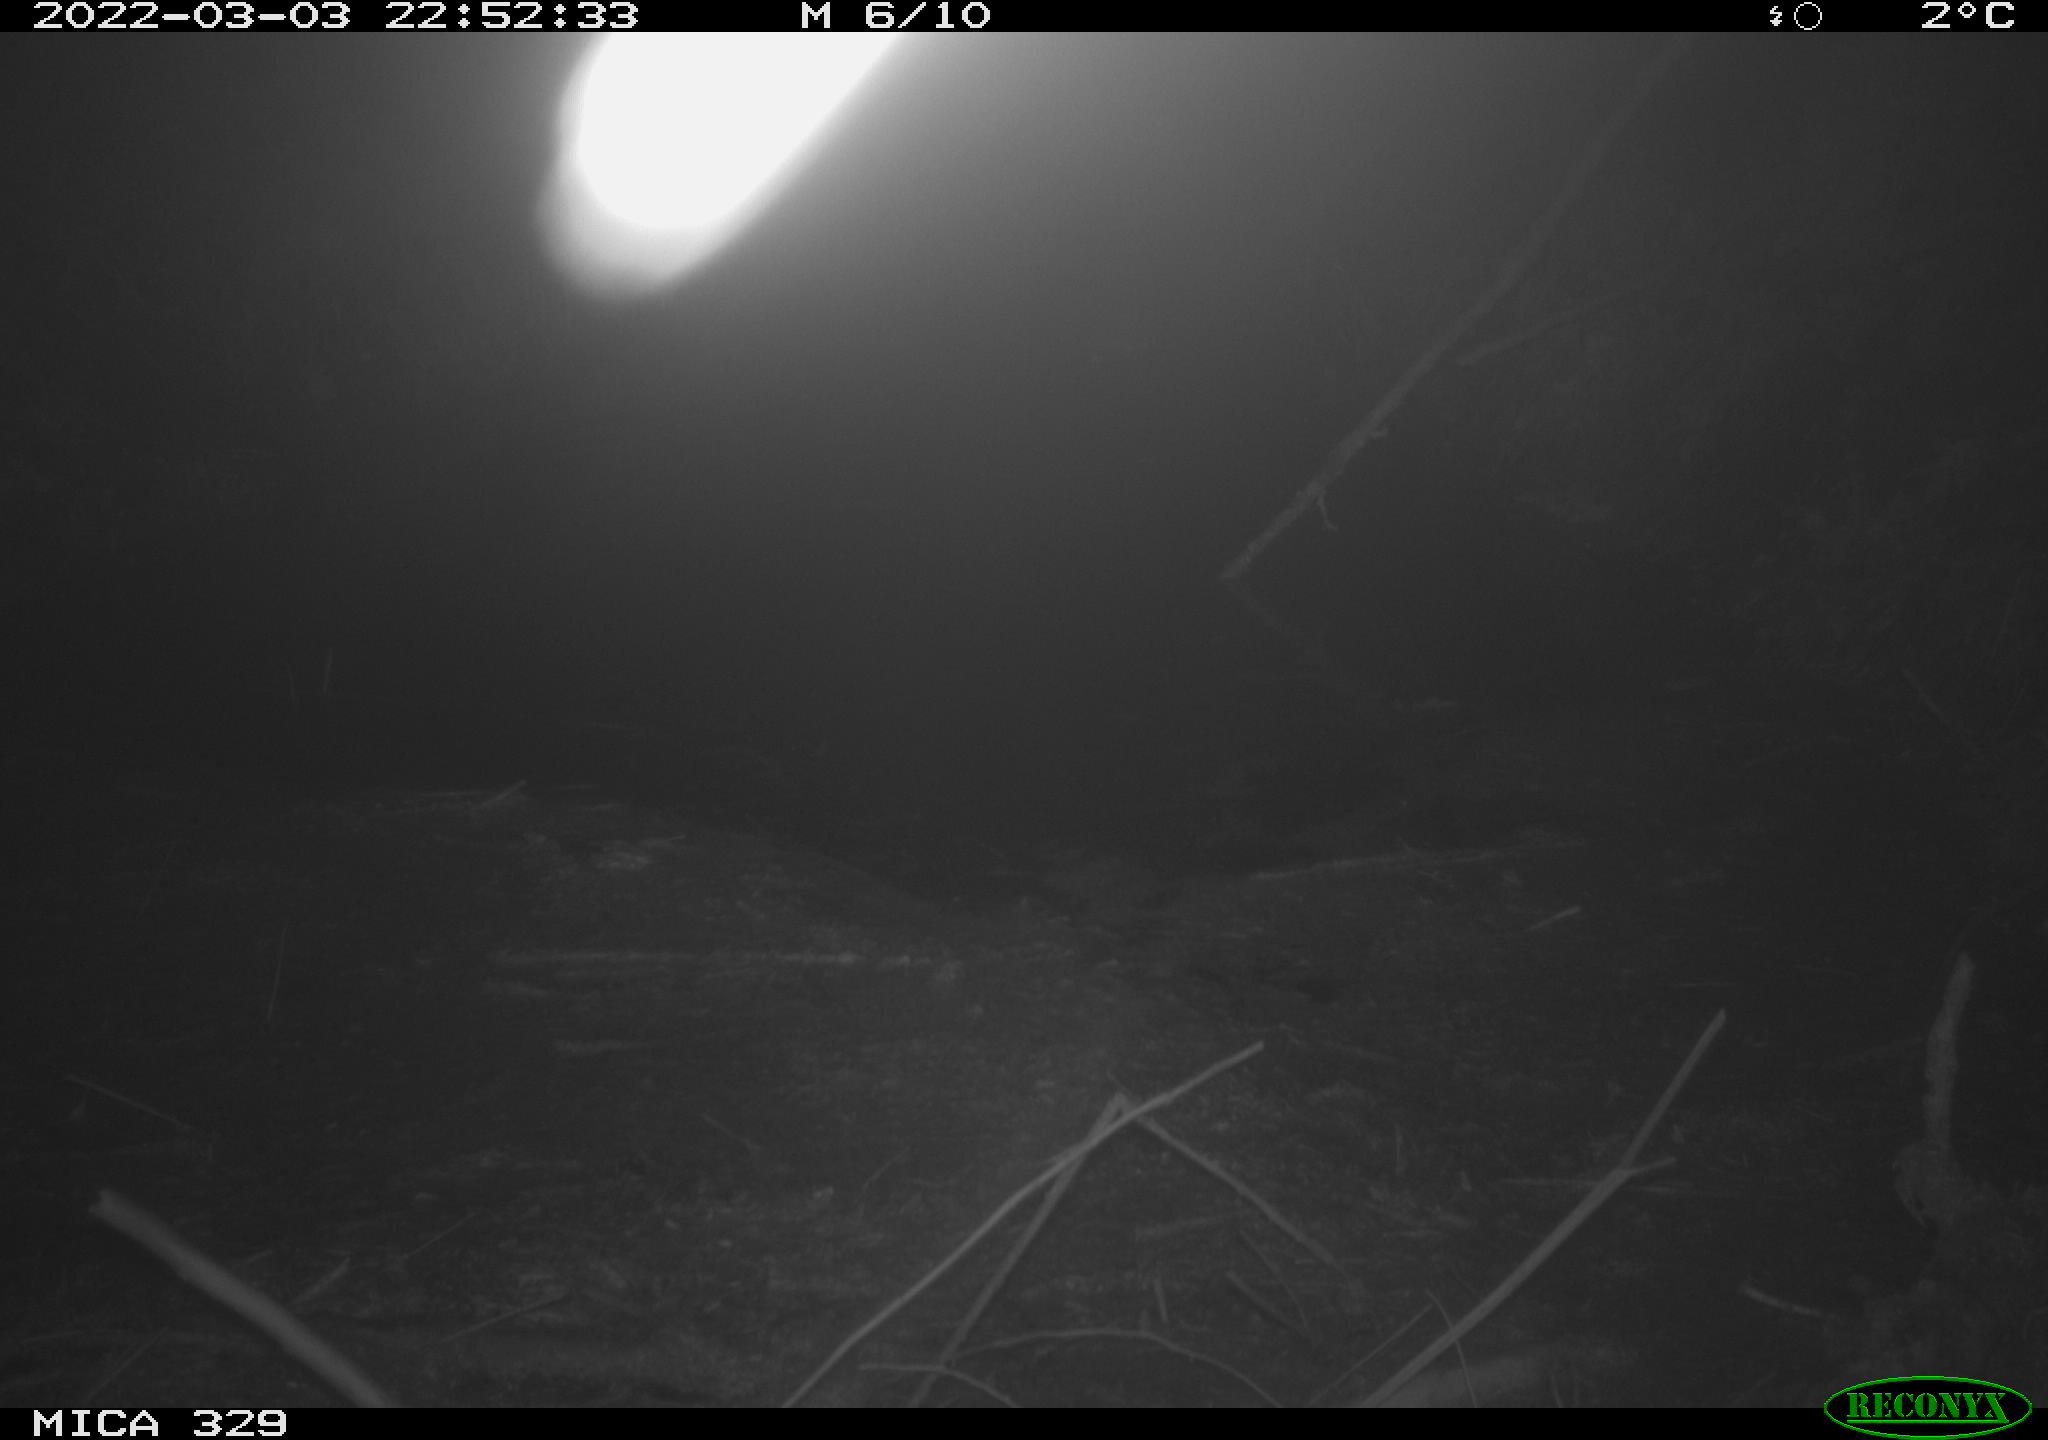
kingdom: Animalia
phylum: Chordata
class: Mammalia
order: Rodentia
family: Cricetidae
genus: Ondatra
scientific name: Ondatra zibethicus
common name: Muskrat
